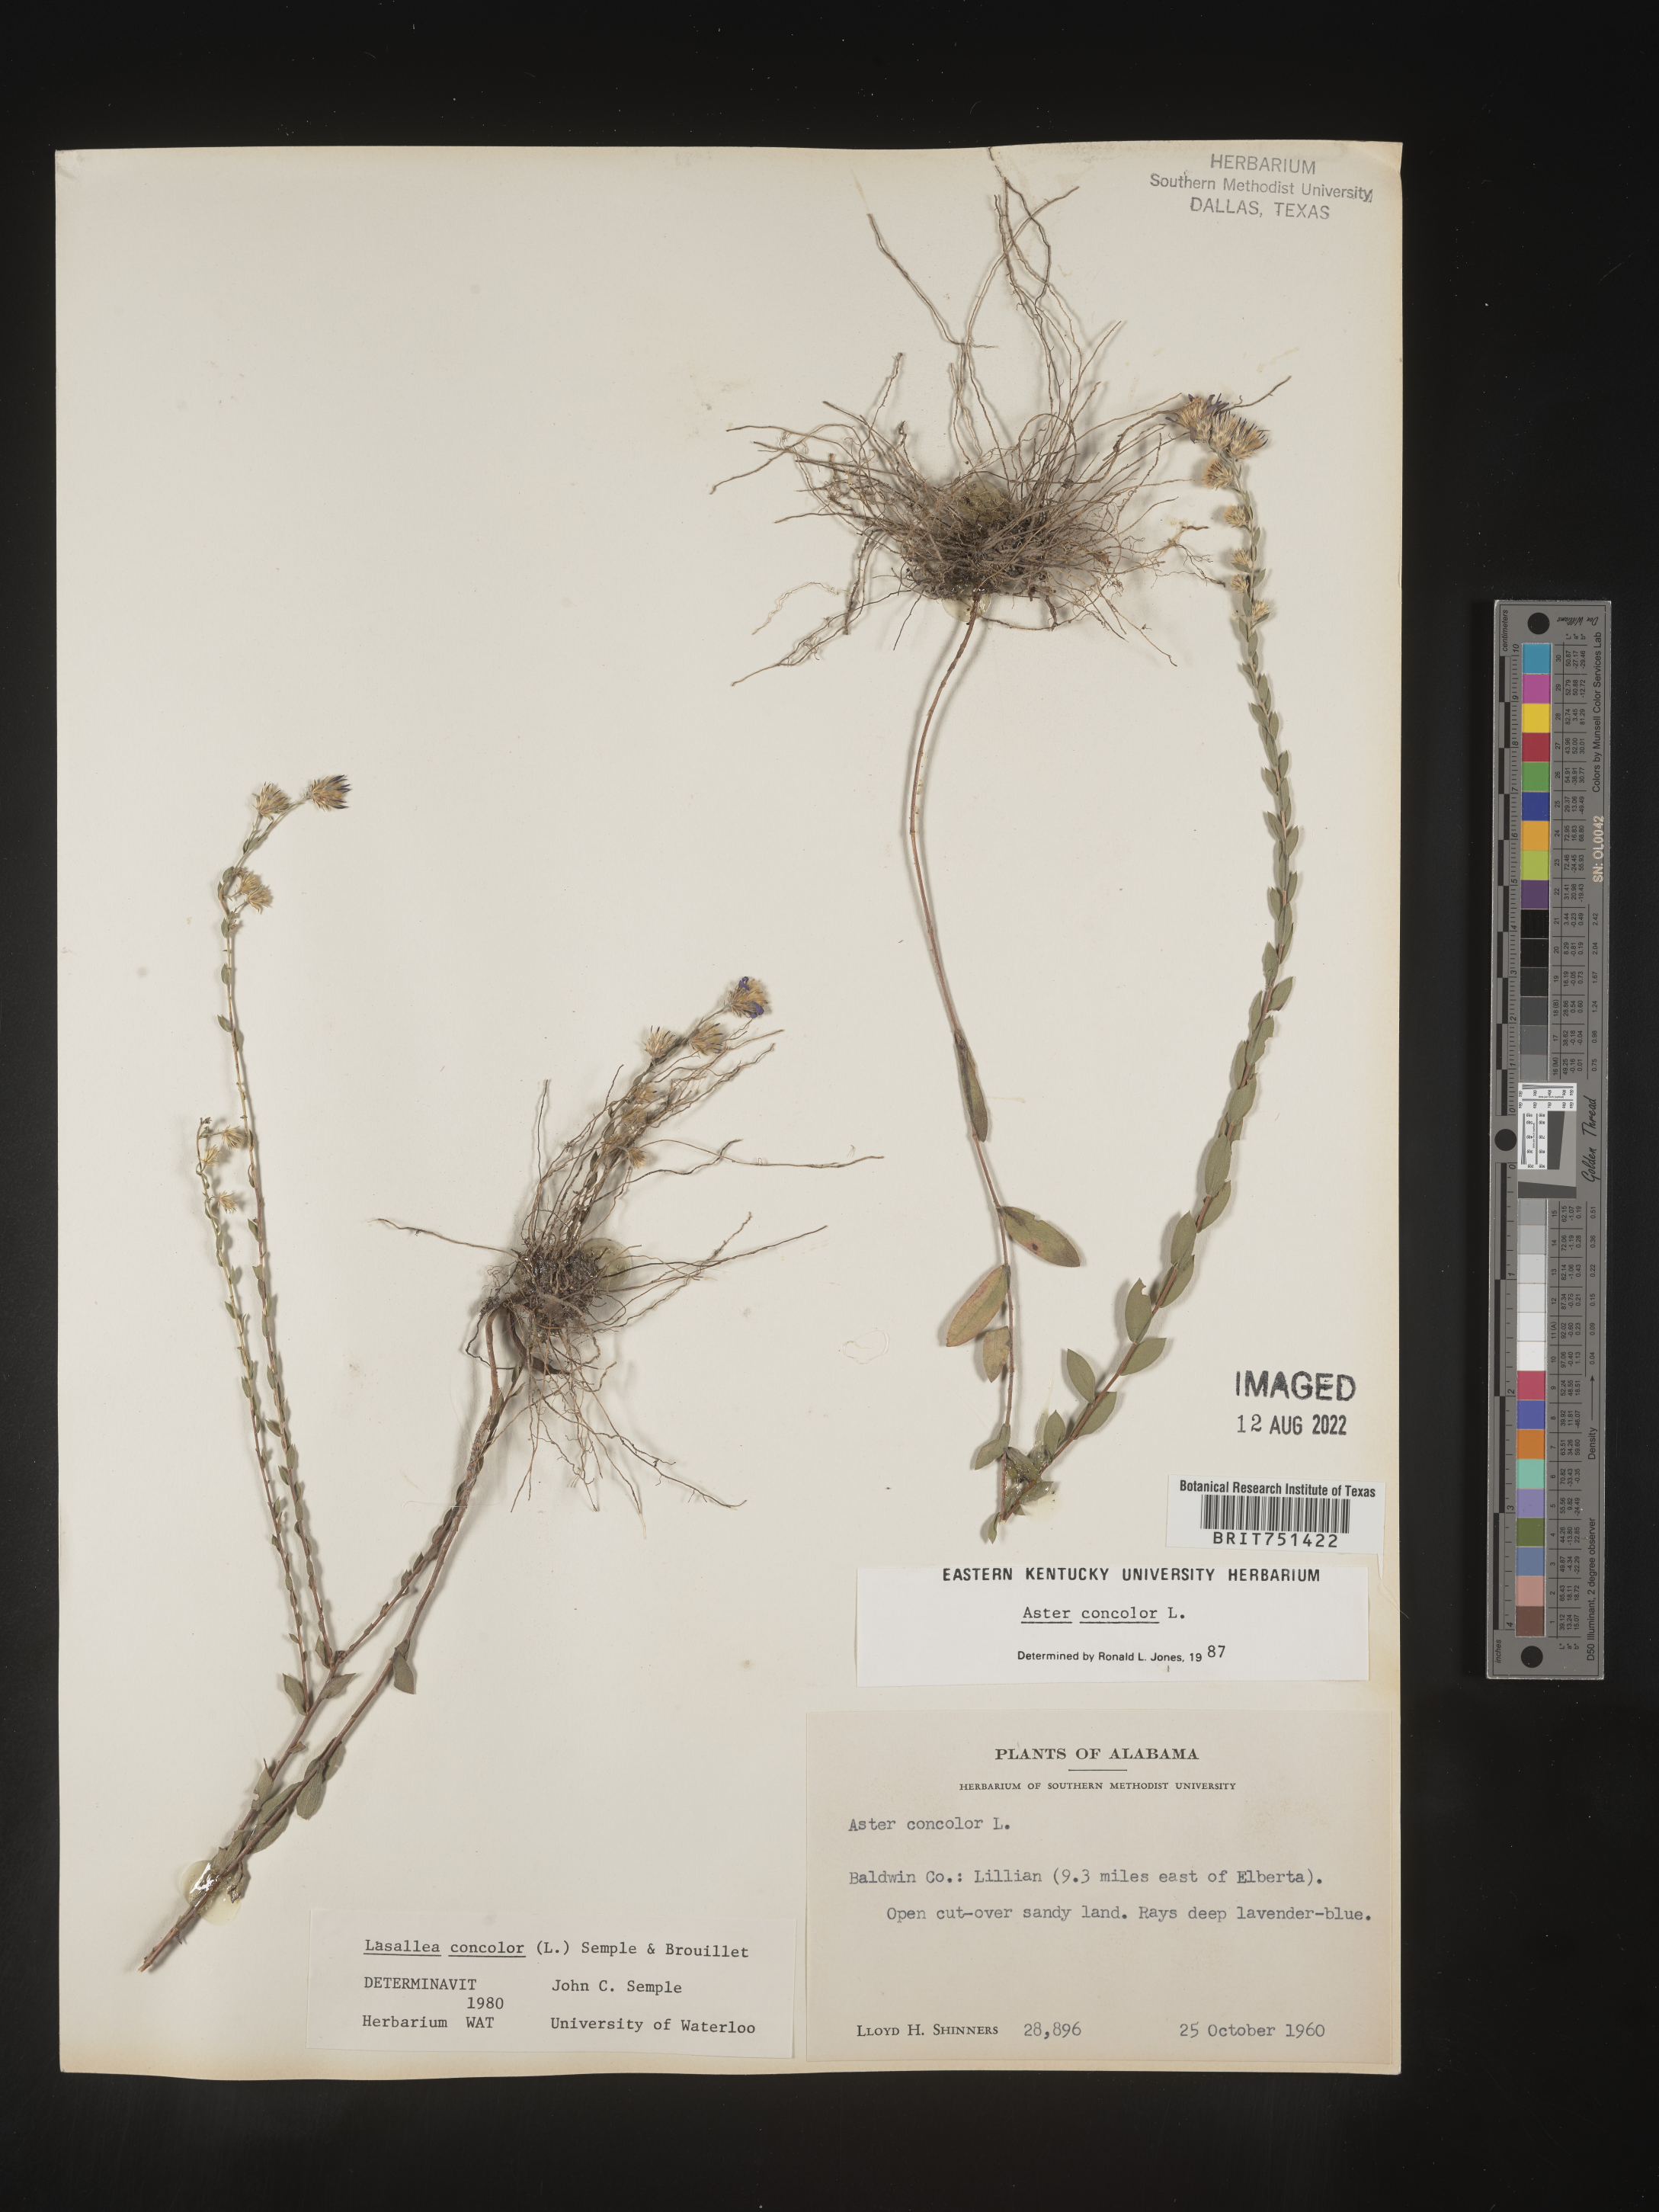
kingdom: Plantae
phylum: Tracheophyta
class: Magnoliopsida
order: Asterales
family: Asteraceae
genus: Symphyotrichum
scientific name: Symphyotrichum concolor
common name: Eastern silver aster
